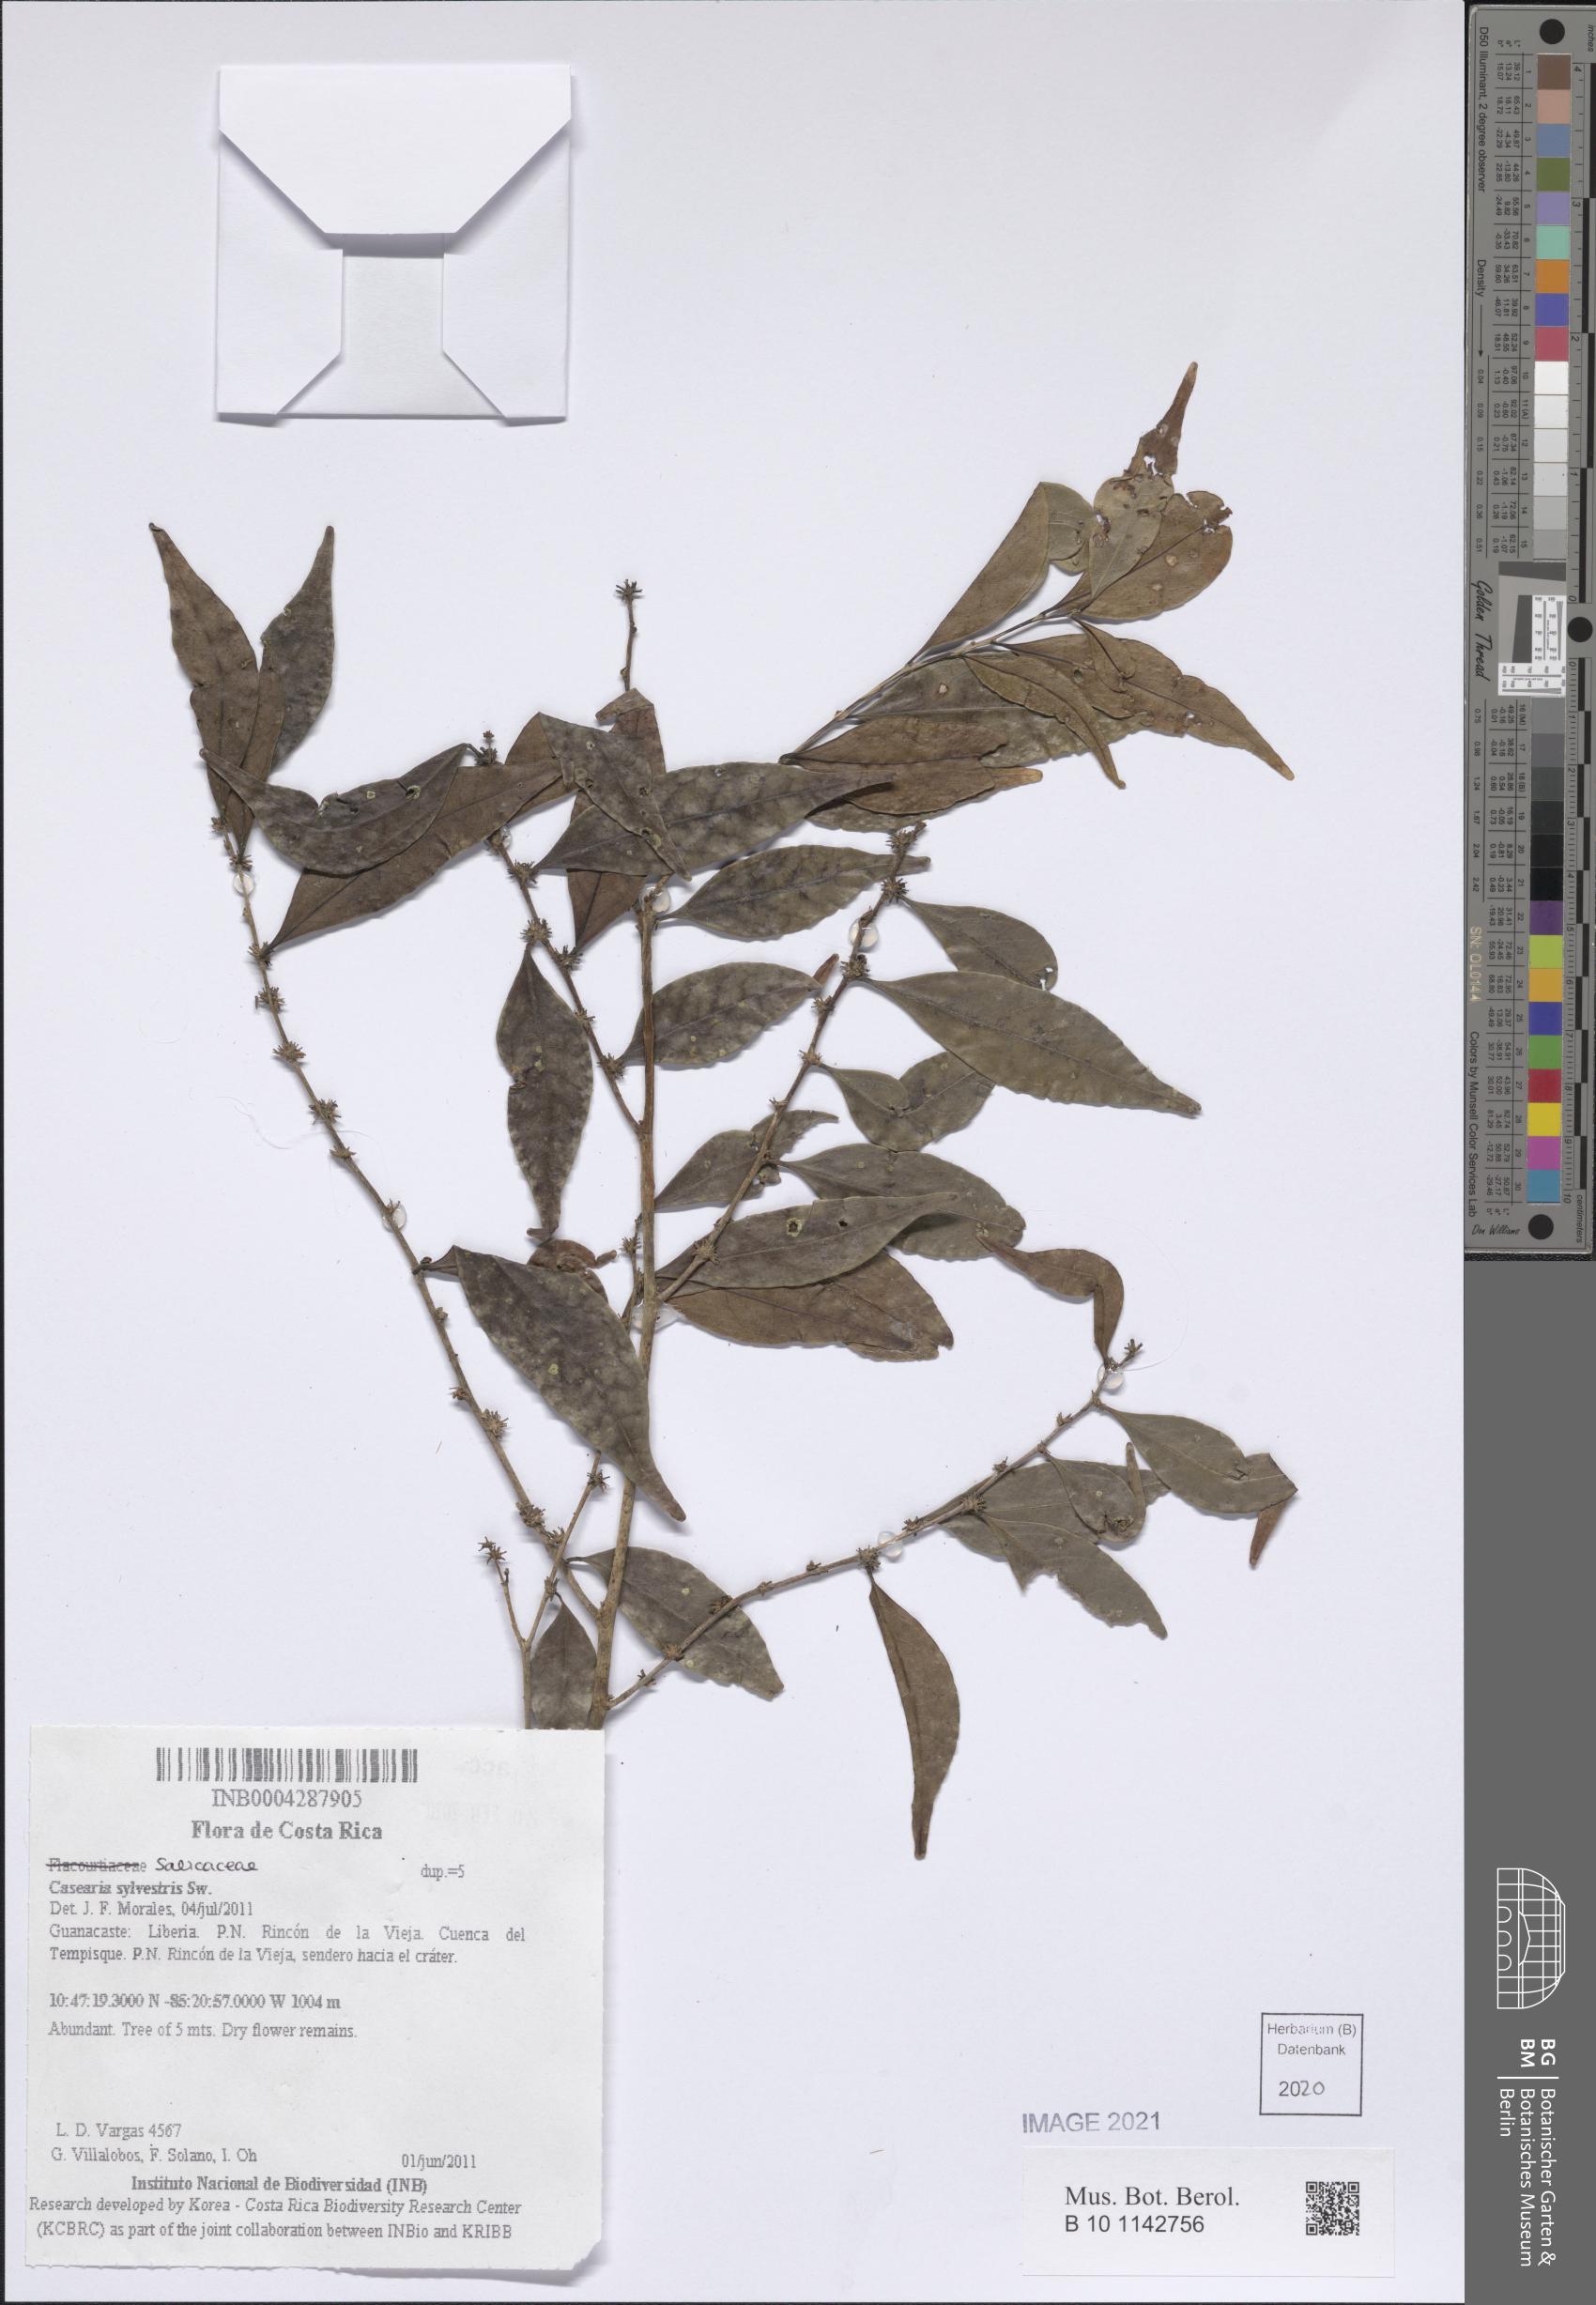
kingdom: Plantae
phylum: Tracheophyta
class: Magnoliopsida
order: Malpighiales
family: Salicaceae
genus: Casearia
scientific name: Casearia sylvestris
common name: Wild sage
